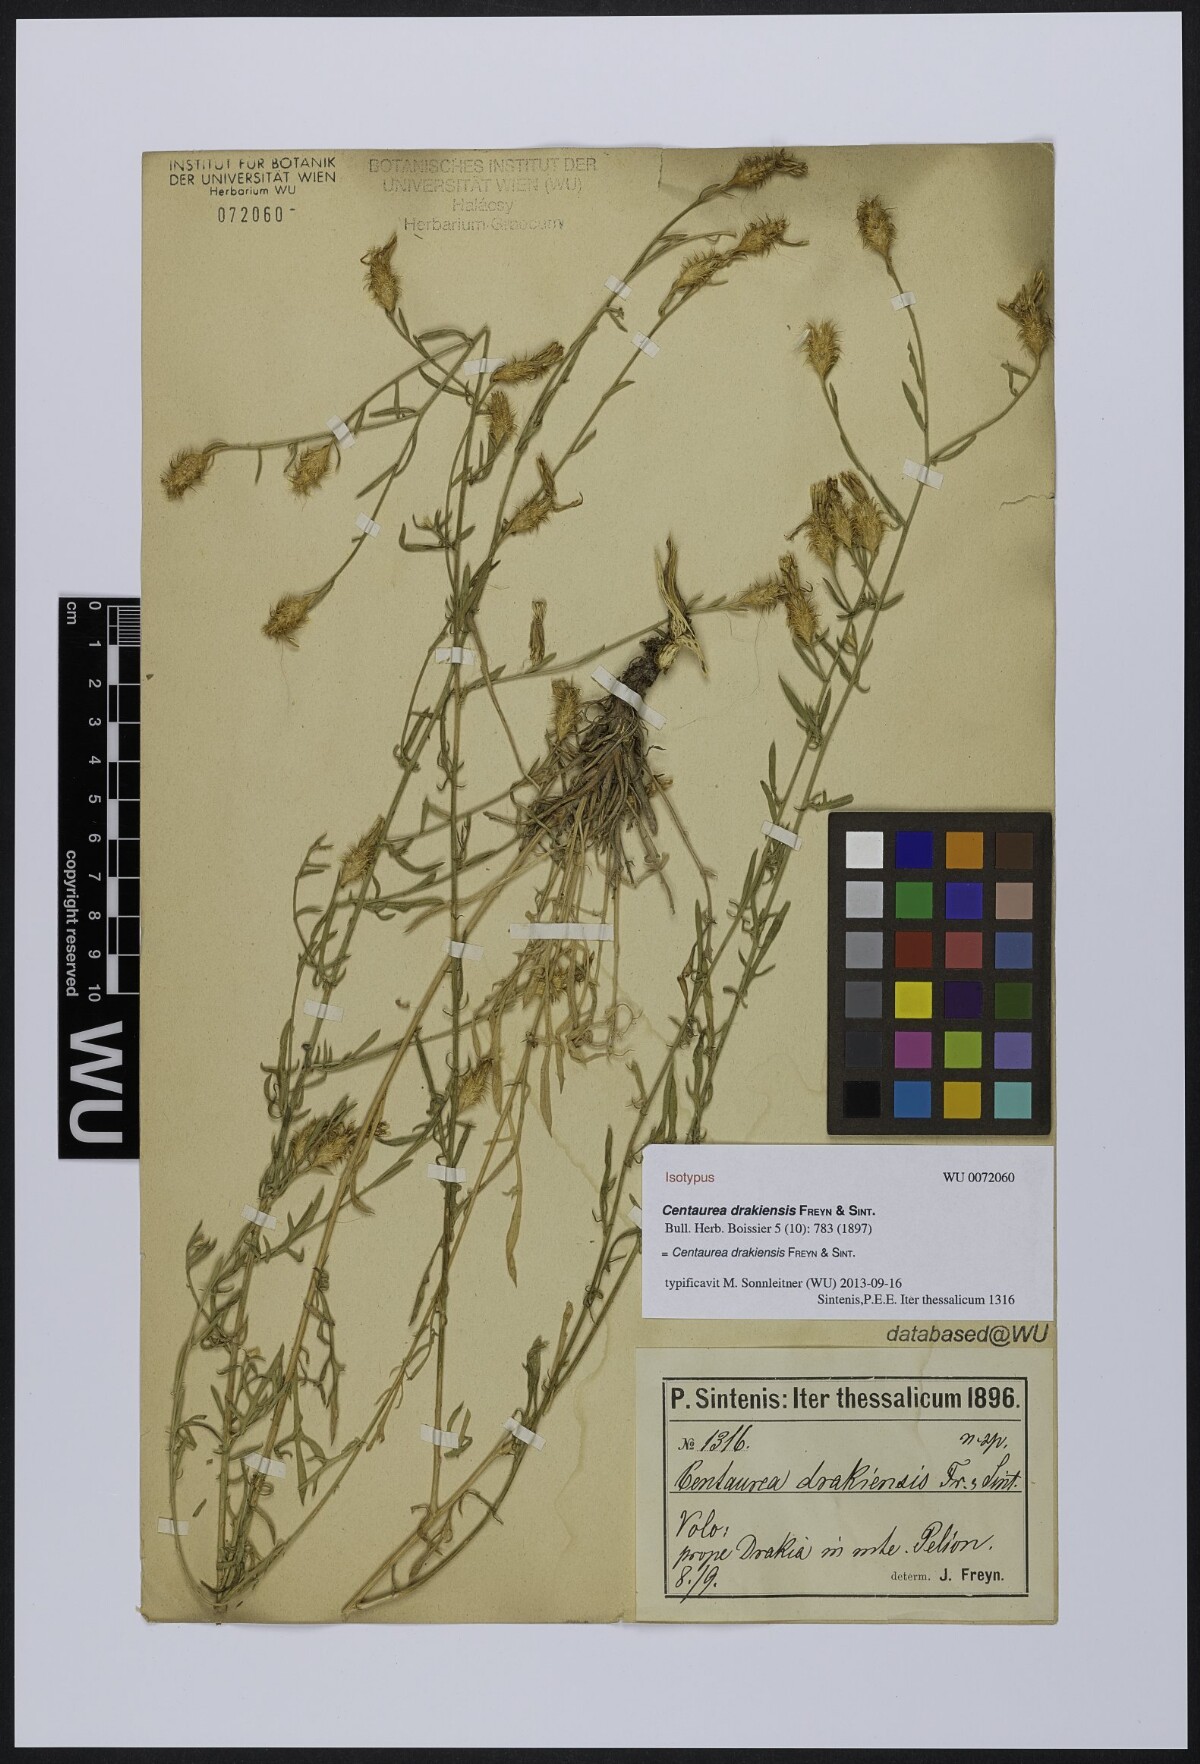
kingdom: Plantae
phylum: Tracheophyta
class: Magnoliopsida
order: Asterales
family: Asteraceae
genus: Centaurea
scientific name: Centaurea thessala
